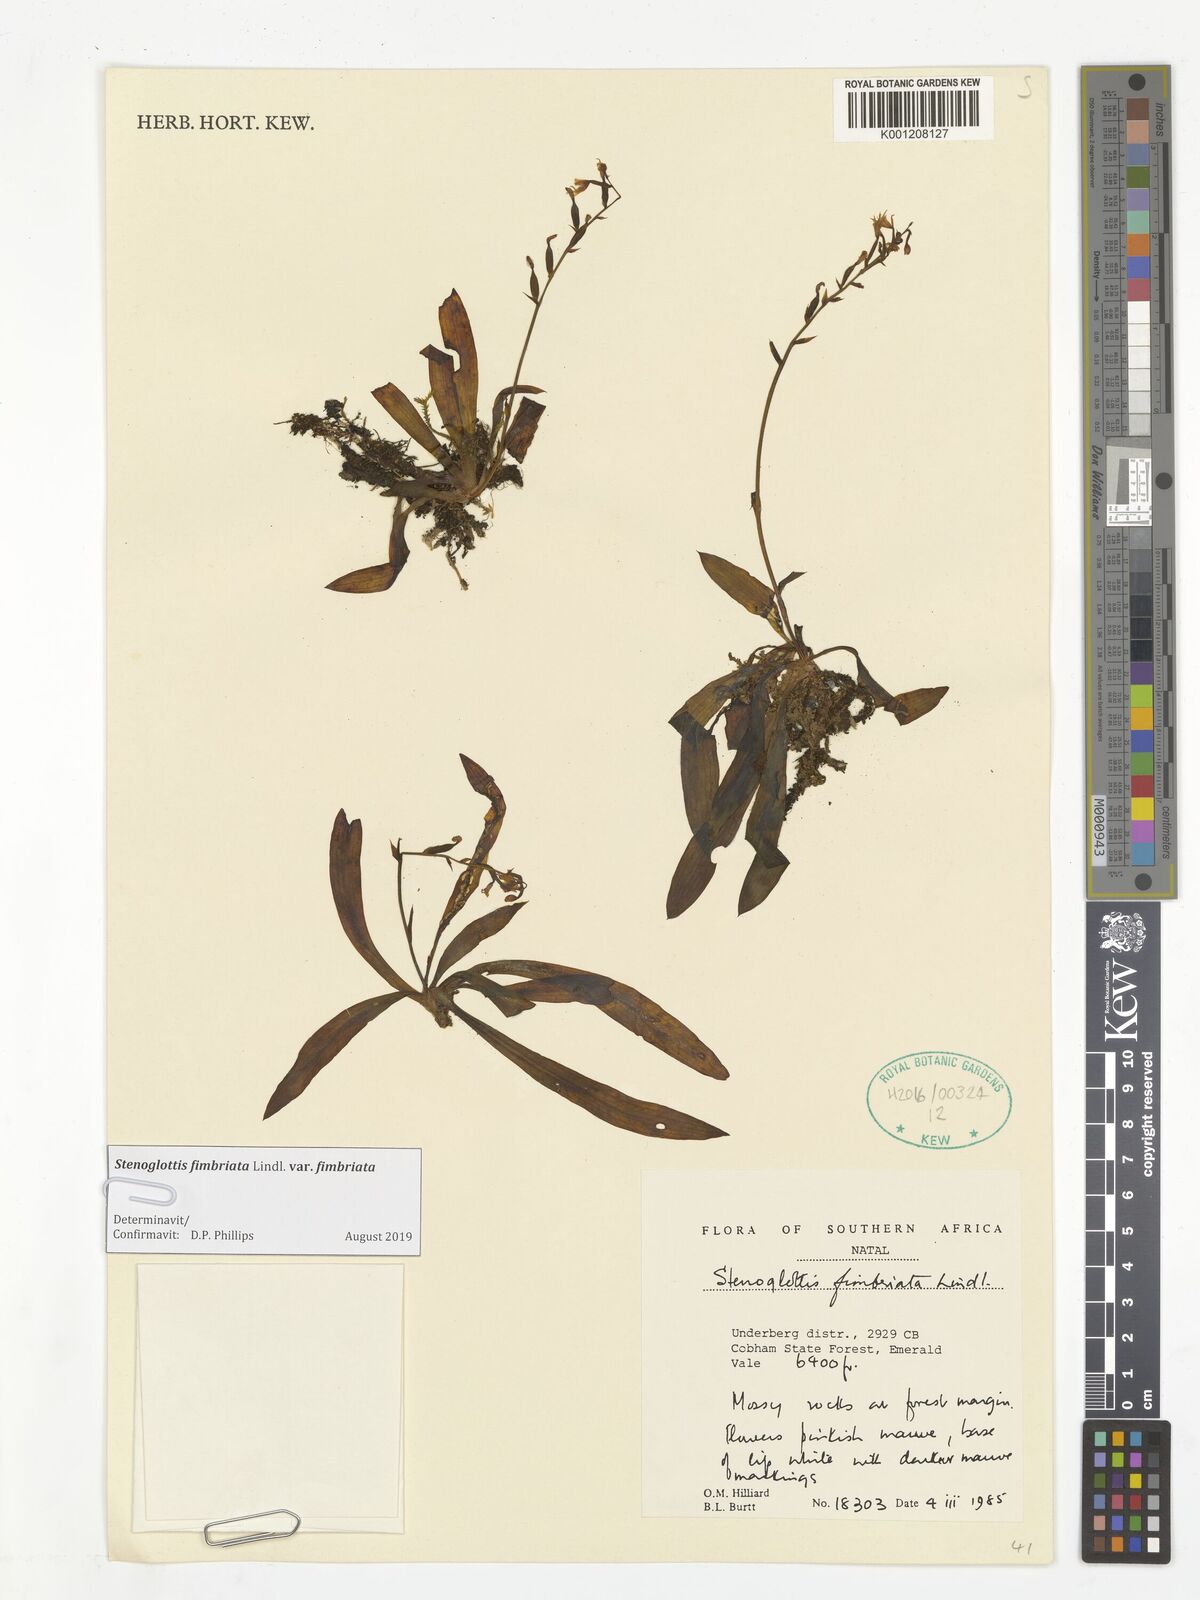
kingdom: Plantae
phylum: Tracheophyta
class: Liliopsida
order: Asparagales
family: Orchidaceae
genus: Stenoglottis
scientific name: Stenoglottis fimbriata
